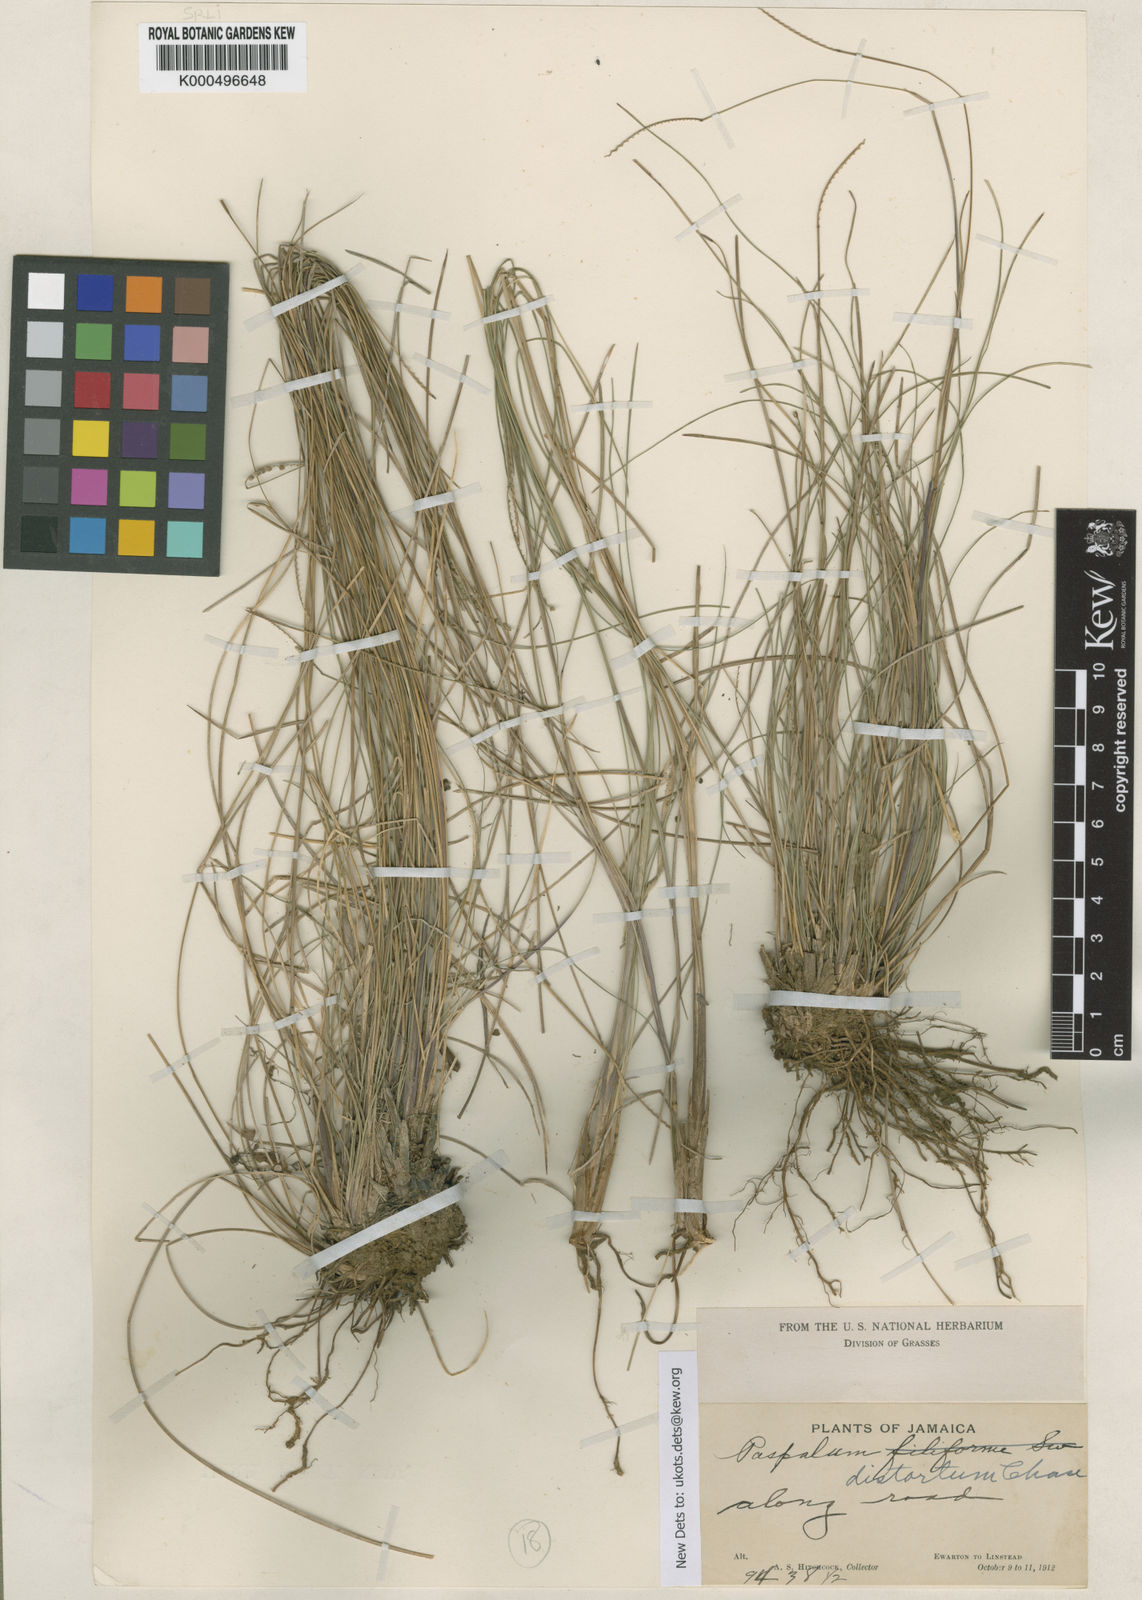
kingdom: Plantae
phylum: Tracheophyta
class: Liliopsida
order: Poales
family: Poaceae
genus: Paspalum
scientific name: Paspalum distortum
